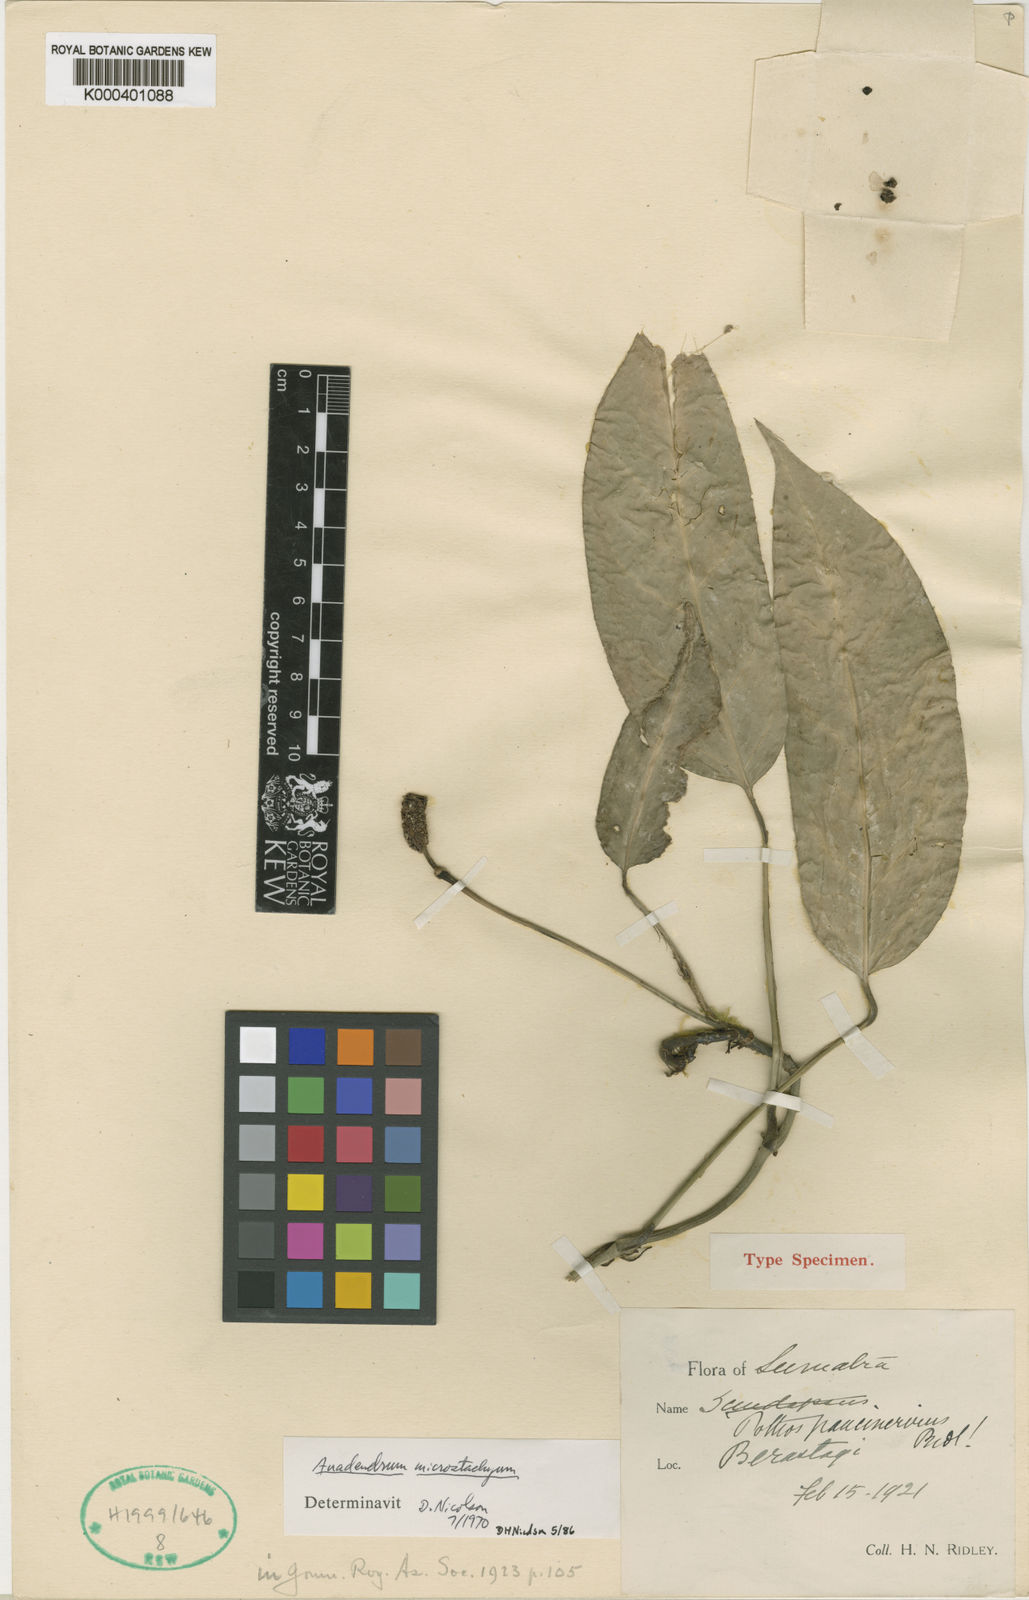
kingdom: Plantae
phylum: Tracheophyta
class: Liliopsida
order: Alismatales
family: Araceae
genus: Anadendrum
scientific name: Anadendrum microstachyum
